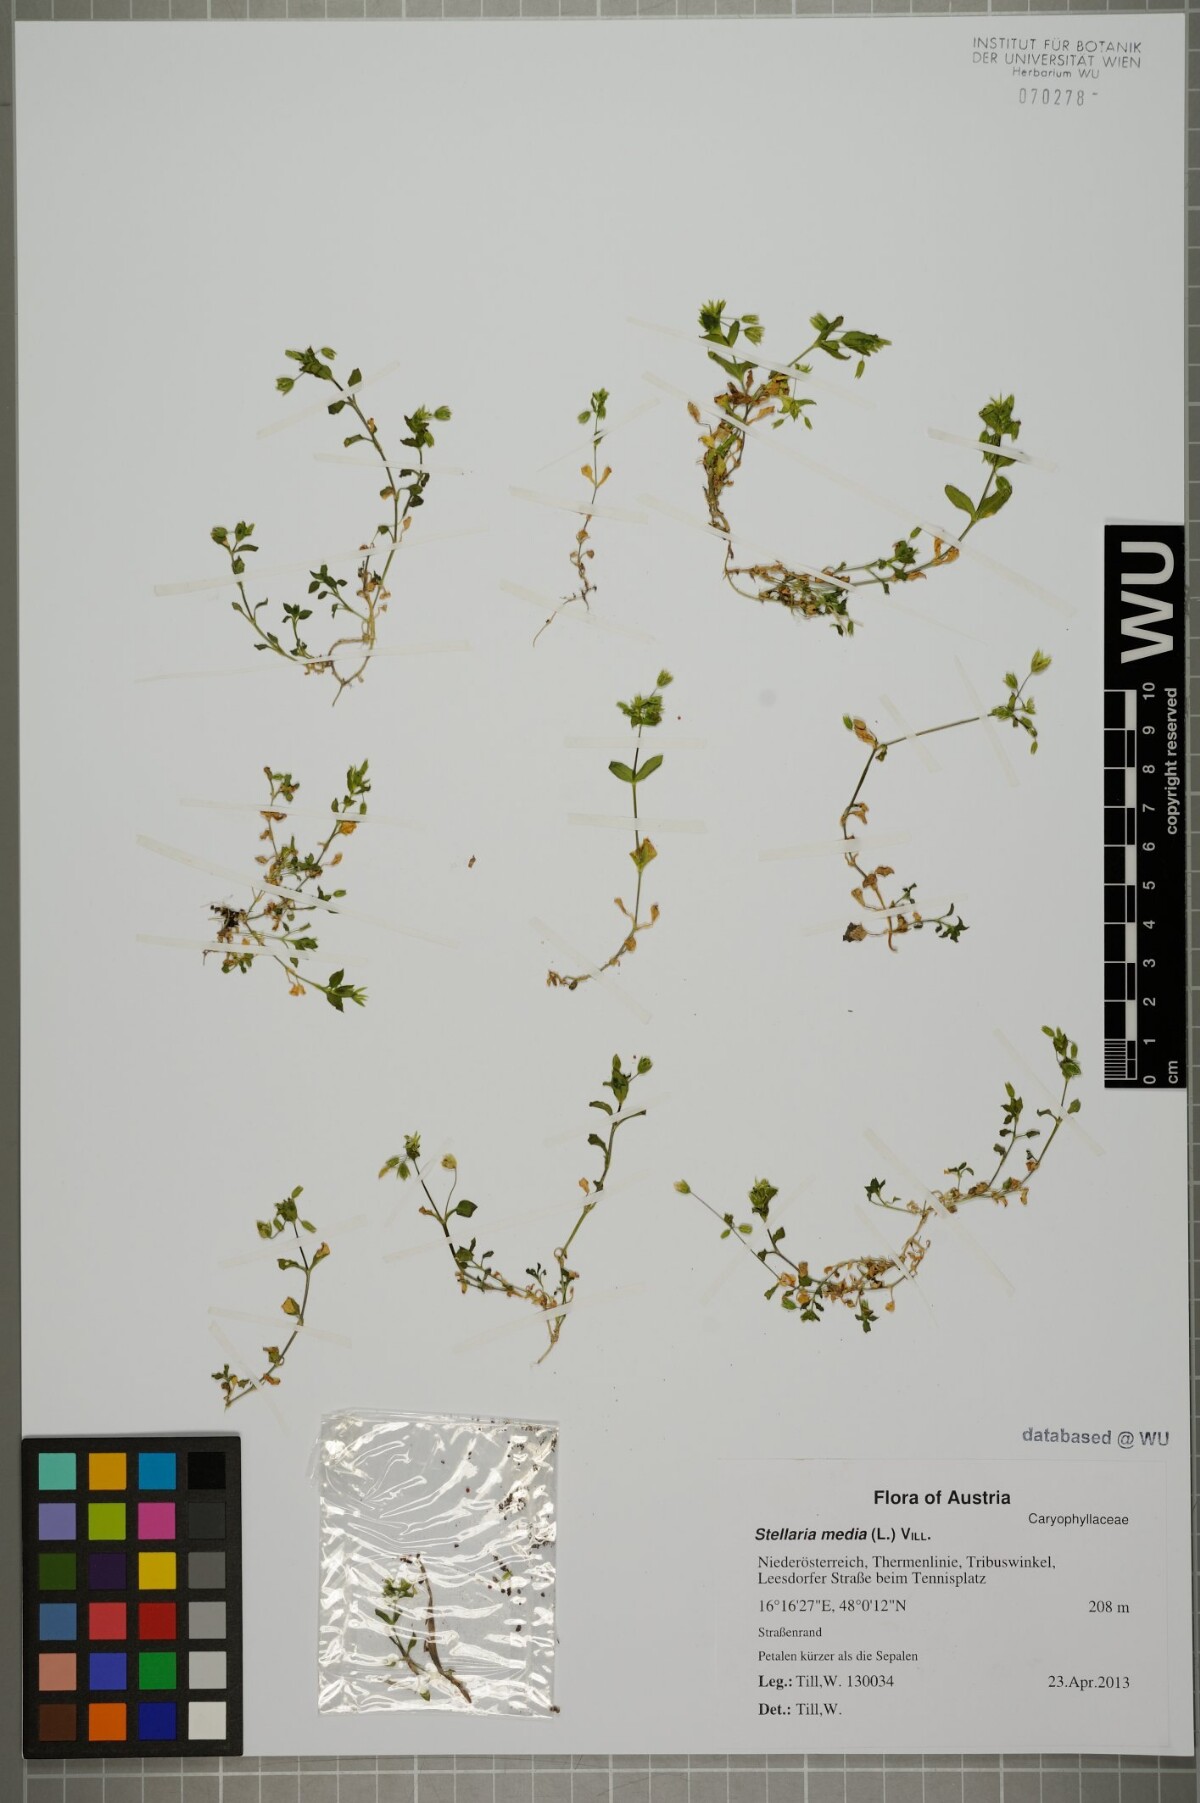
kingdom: Plantae
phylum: Tracheophyta
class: Magnoliopsida
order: Caryophyllales
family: Caryophyllaceae
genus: Stellaria
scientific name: Stellaria media
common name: Common chickweed
